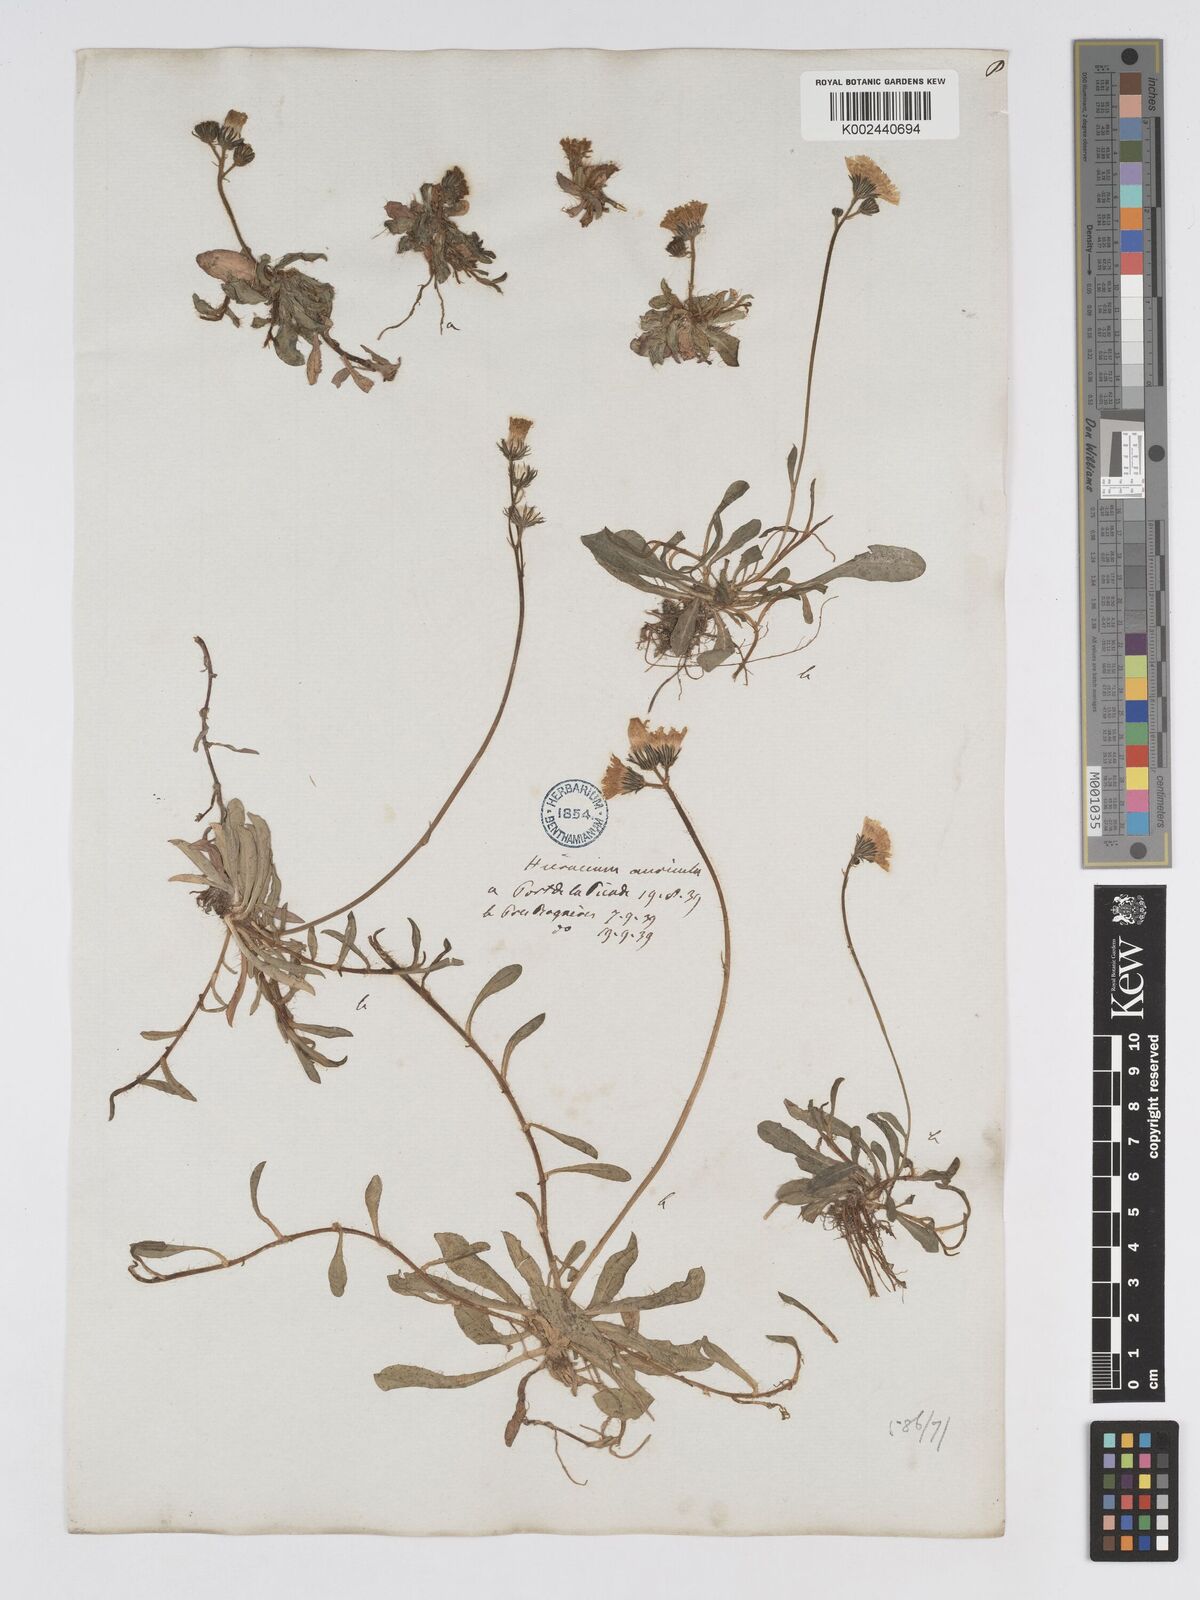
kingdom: Plantae
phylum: Tracheophyta
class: Magnoliopsida
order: Asterales
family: Asteraceae
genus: Pilosella
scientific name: Pilosella floribunda
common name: Glaucous hawkweed
